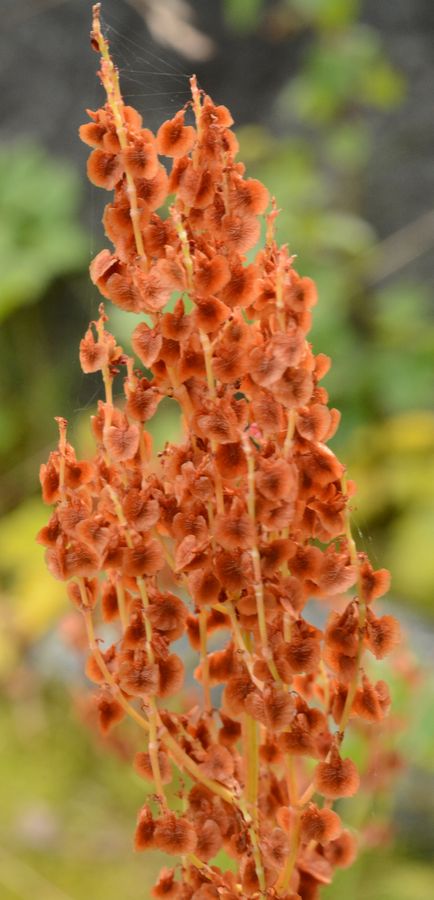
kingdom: Plantae
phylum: Tracheophyta
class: Magnoliopsida
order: Caryophyllales
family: Polygonaceae
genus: Rumex
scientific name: Rumex thyrsiflorus
